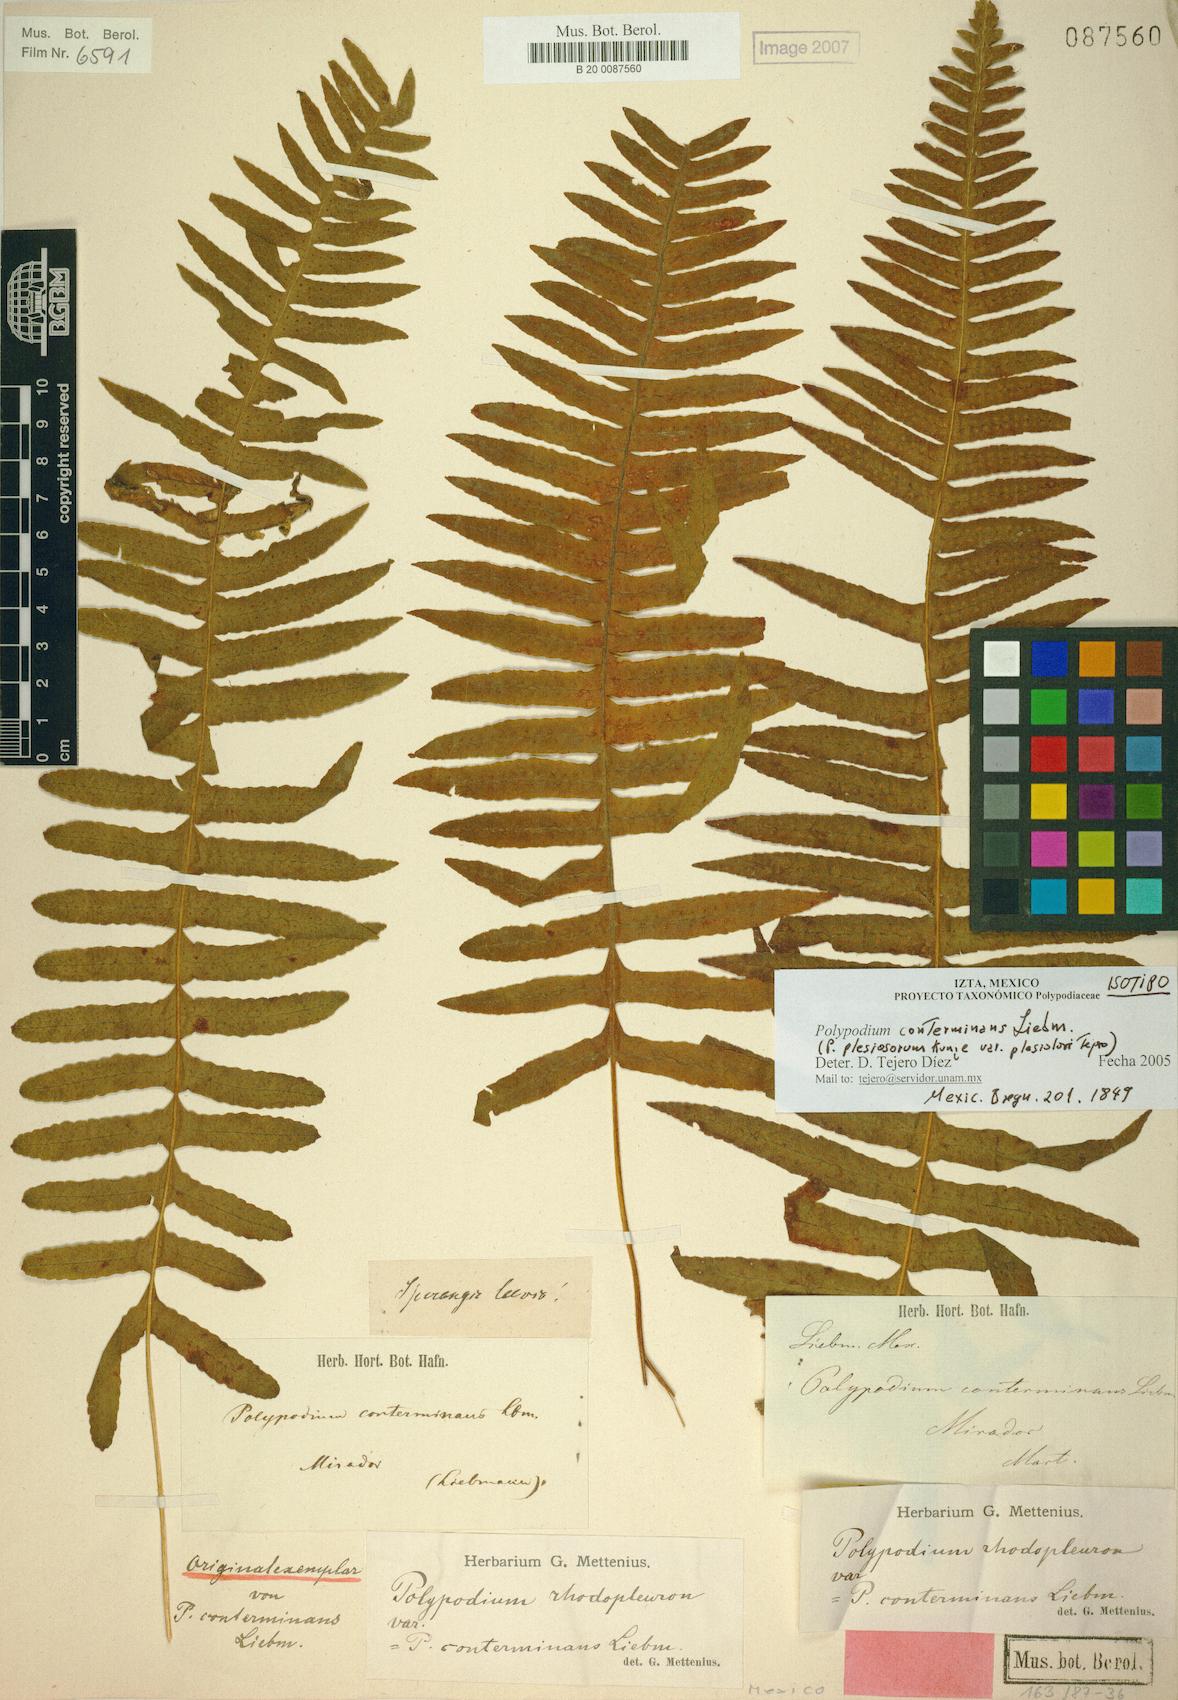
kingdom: Plantae
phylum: Tracheophyta
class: Polypodiopsida
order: Polypodiales
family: Polypodiaceae
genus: Polypodium
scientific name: Polypodium conterminans
